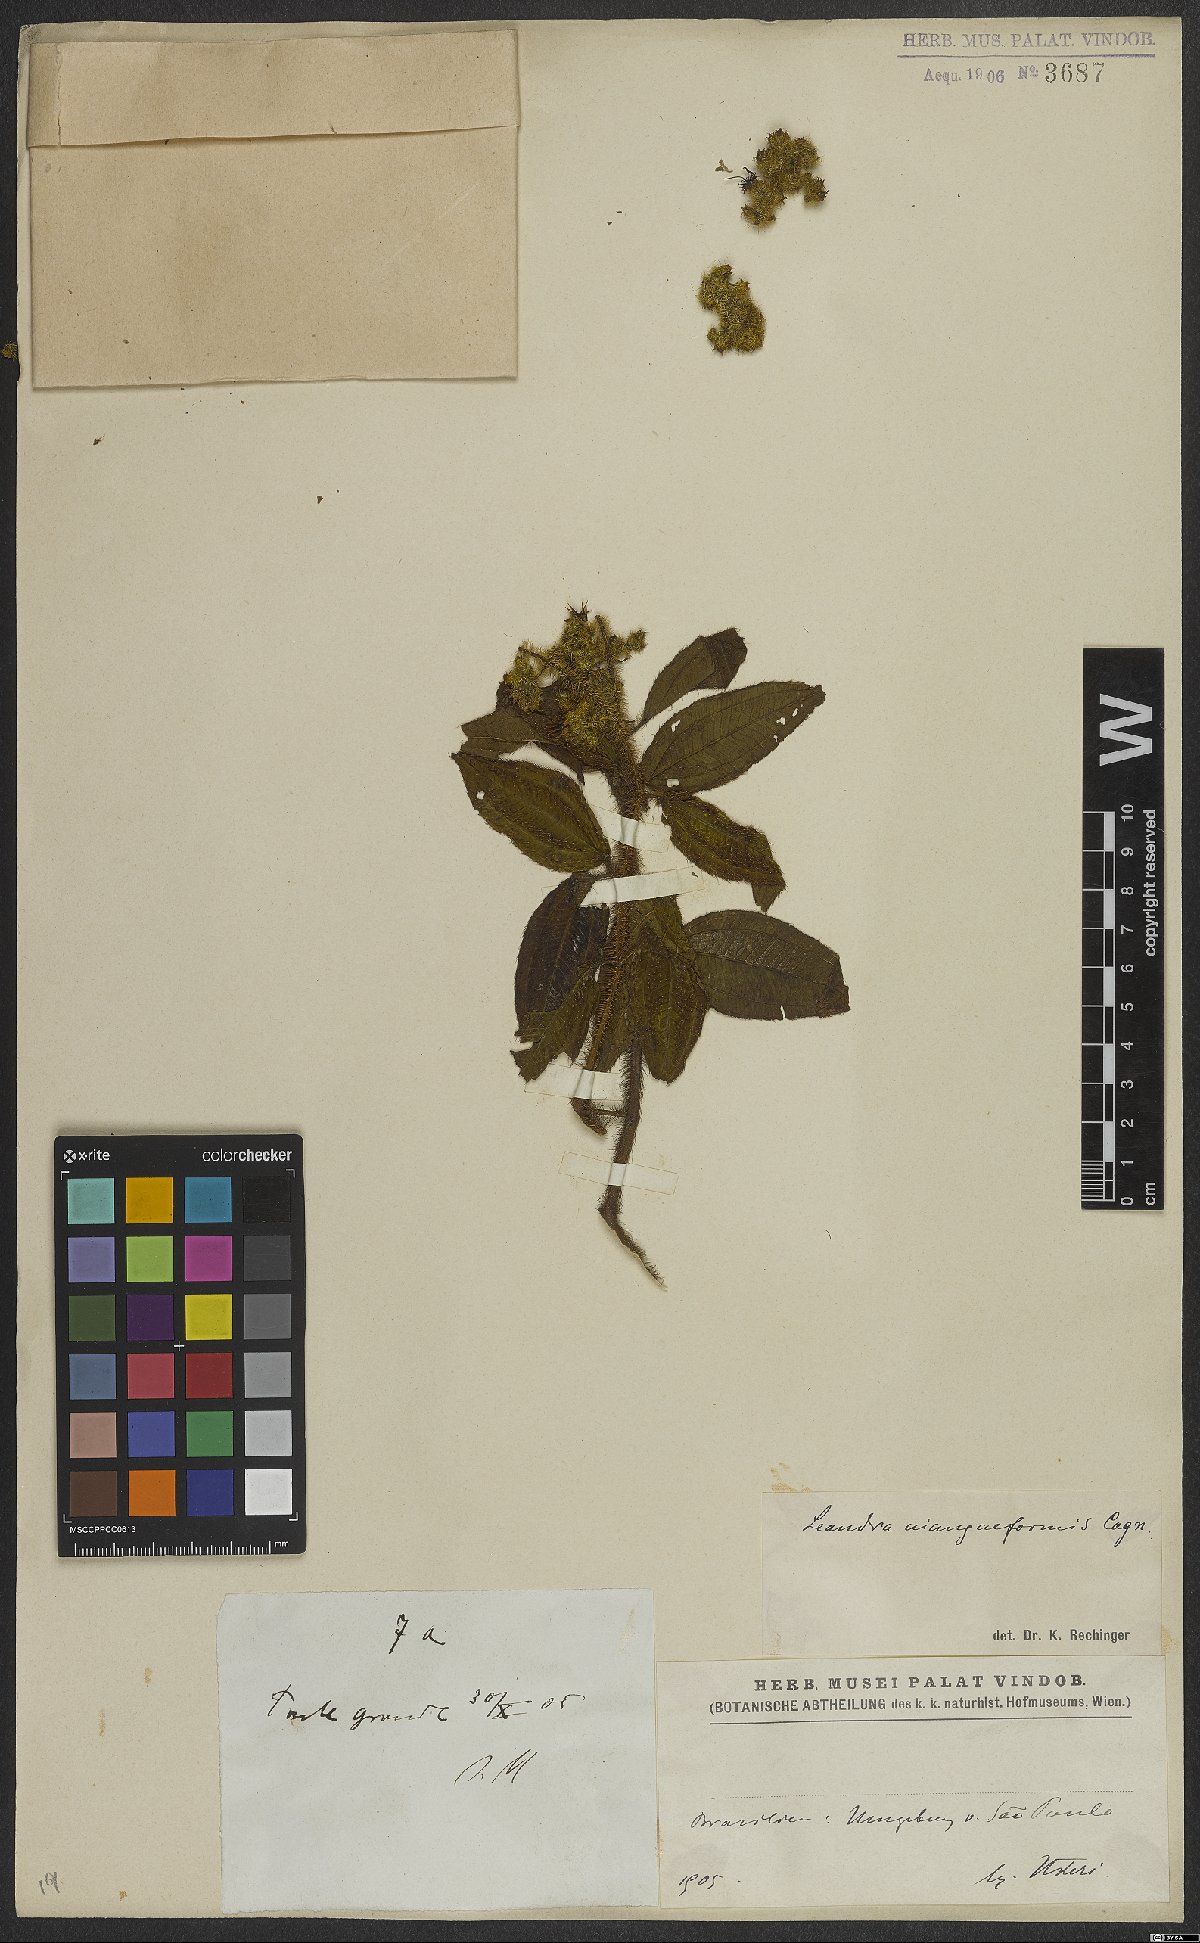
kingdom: Plantae
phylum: Tracheophyta
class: Magnoliopsida
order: Myrtales
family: Melastomataceae
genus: Miconia
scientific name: Miconia niangaeformis
